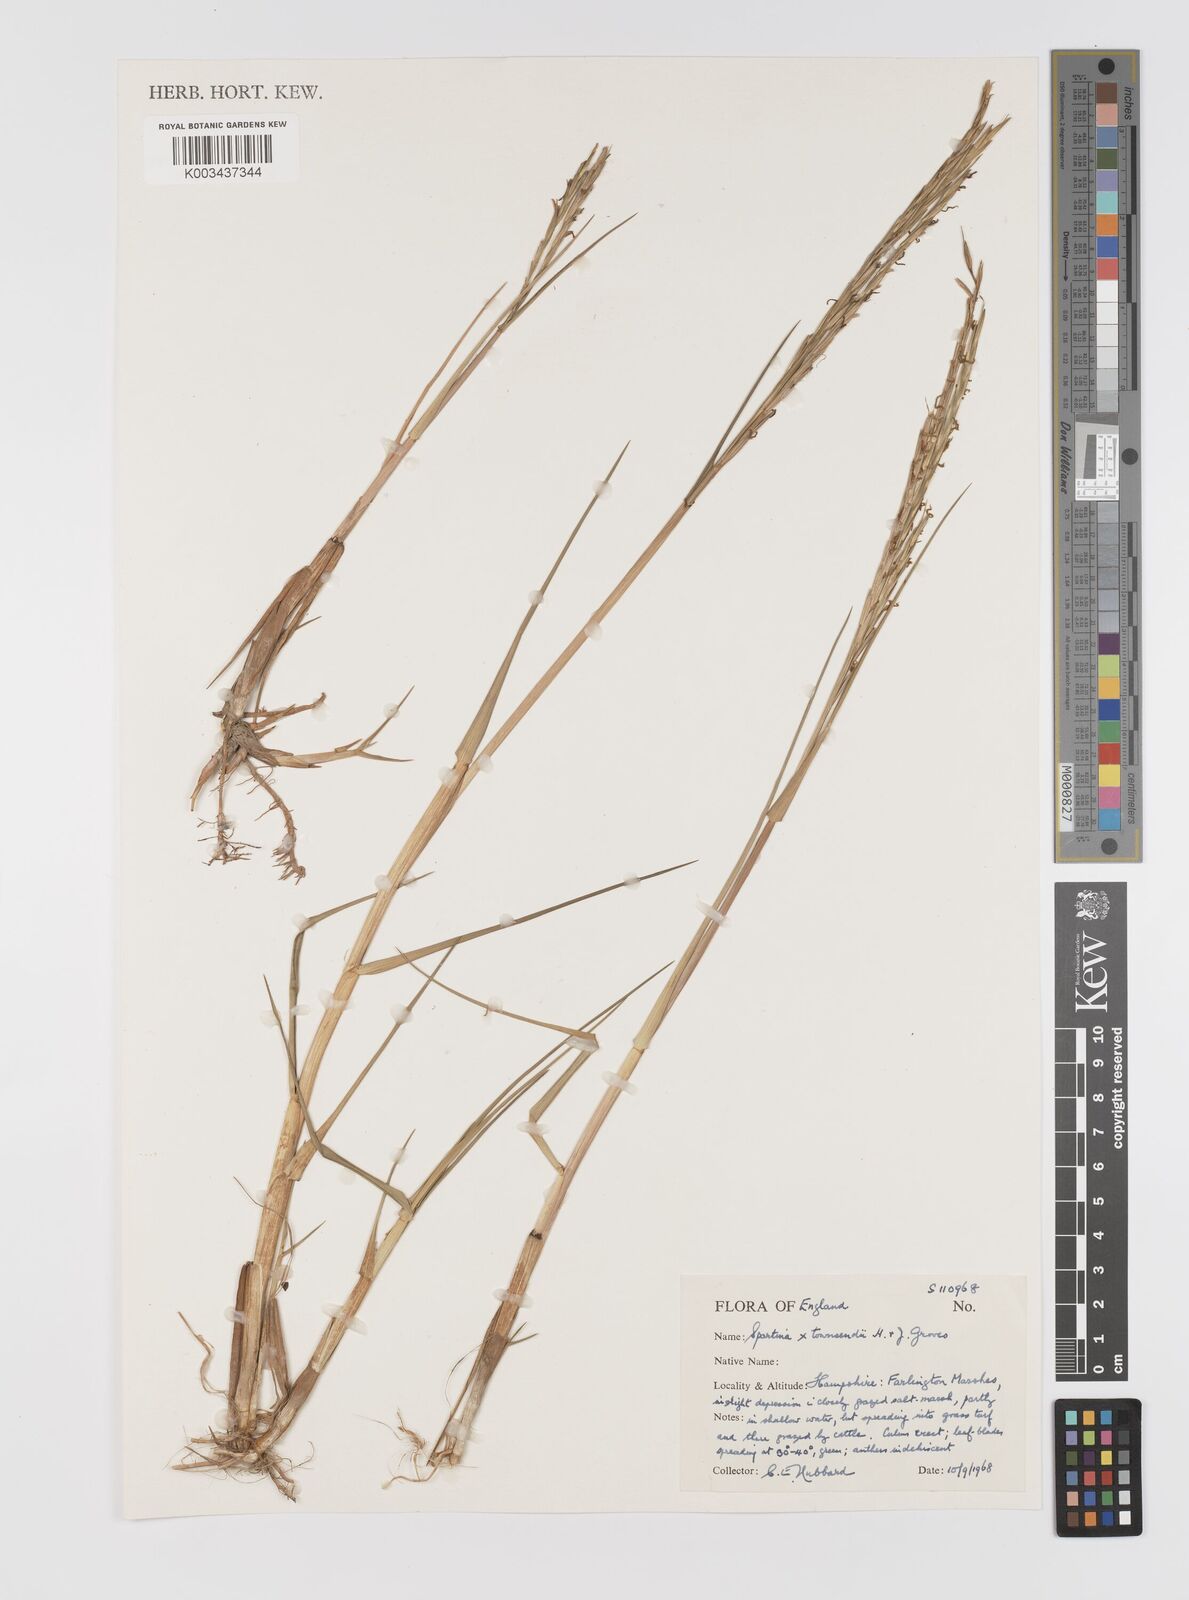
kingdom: Plantae
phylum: Tracheophyta
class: Liliopsida
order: Poales
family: Poaceae
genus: Sporobolus
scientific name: Sporobolus townsendii
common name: Townsend's cordgrass
